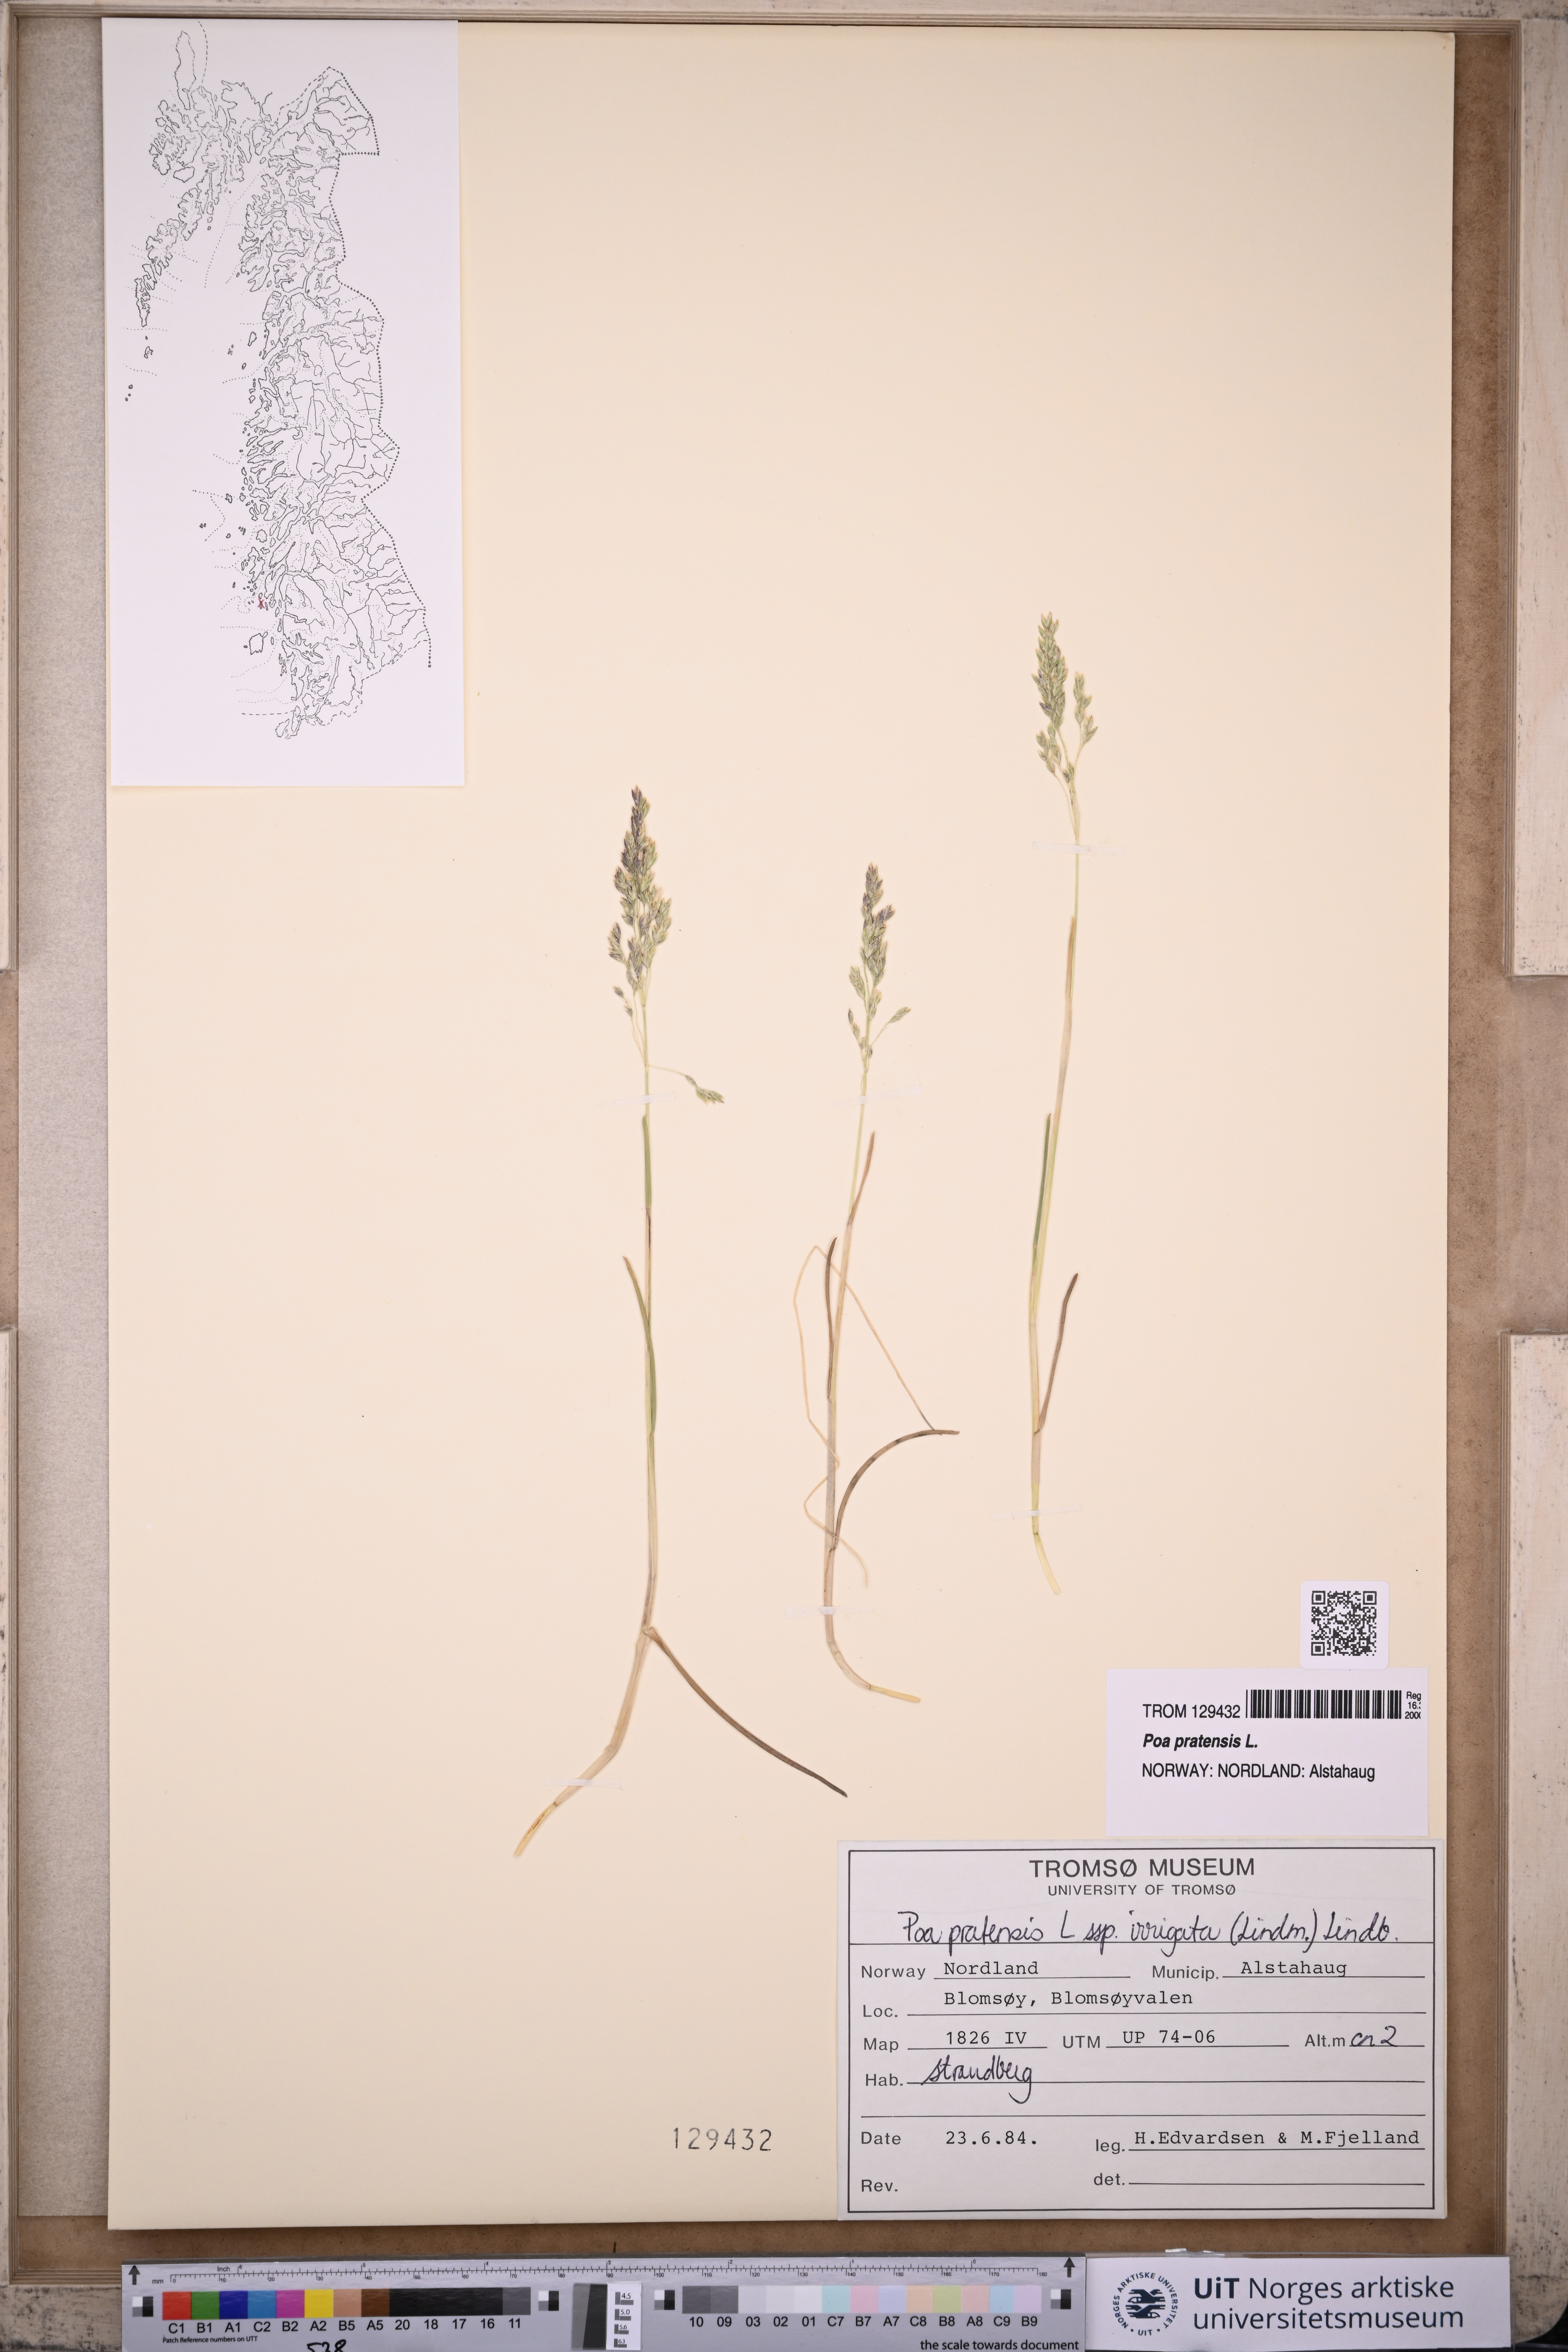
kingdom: Plantae
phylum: Tracheophyta
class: Liliopsida
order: Poales
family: Poaceae
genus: Poa
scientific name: Poa pratensis
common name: Kentucky bluegrass
